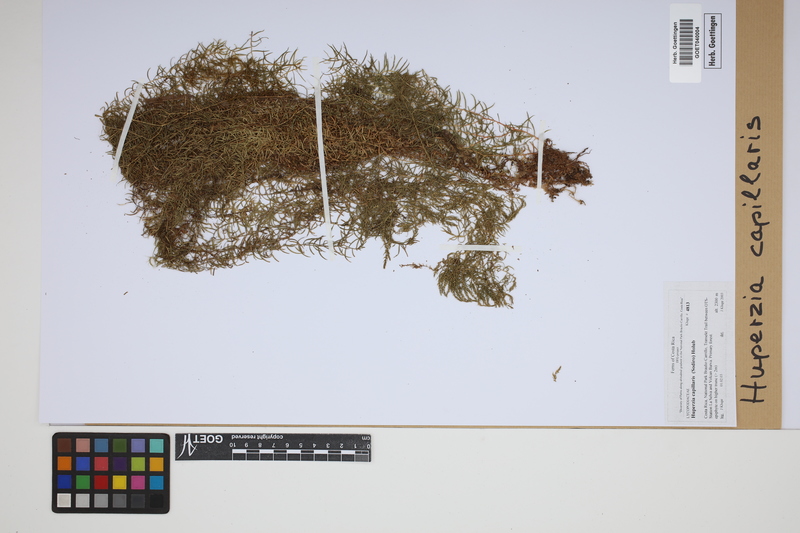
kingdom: Plantae
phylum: Tracheophyta
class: Lycopodiopsida
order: Lycopodiales
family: Lycopodiaceae
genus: Phlegmariurus
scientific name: Phlegmariurus capillaris
